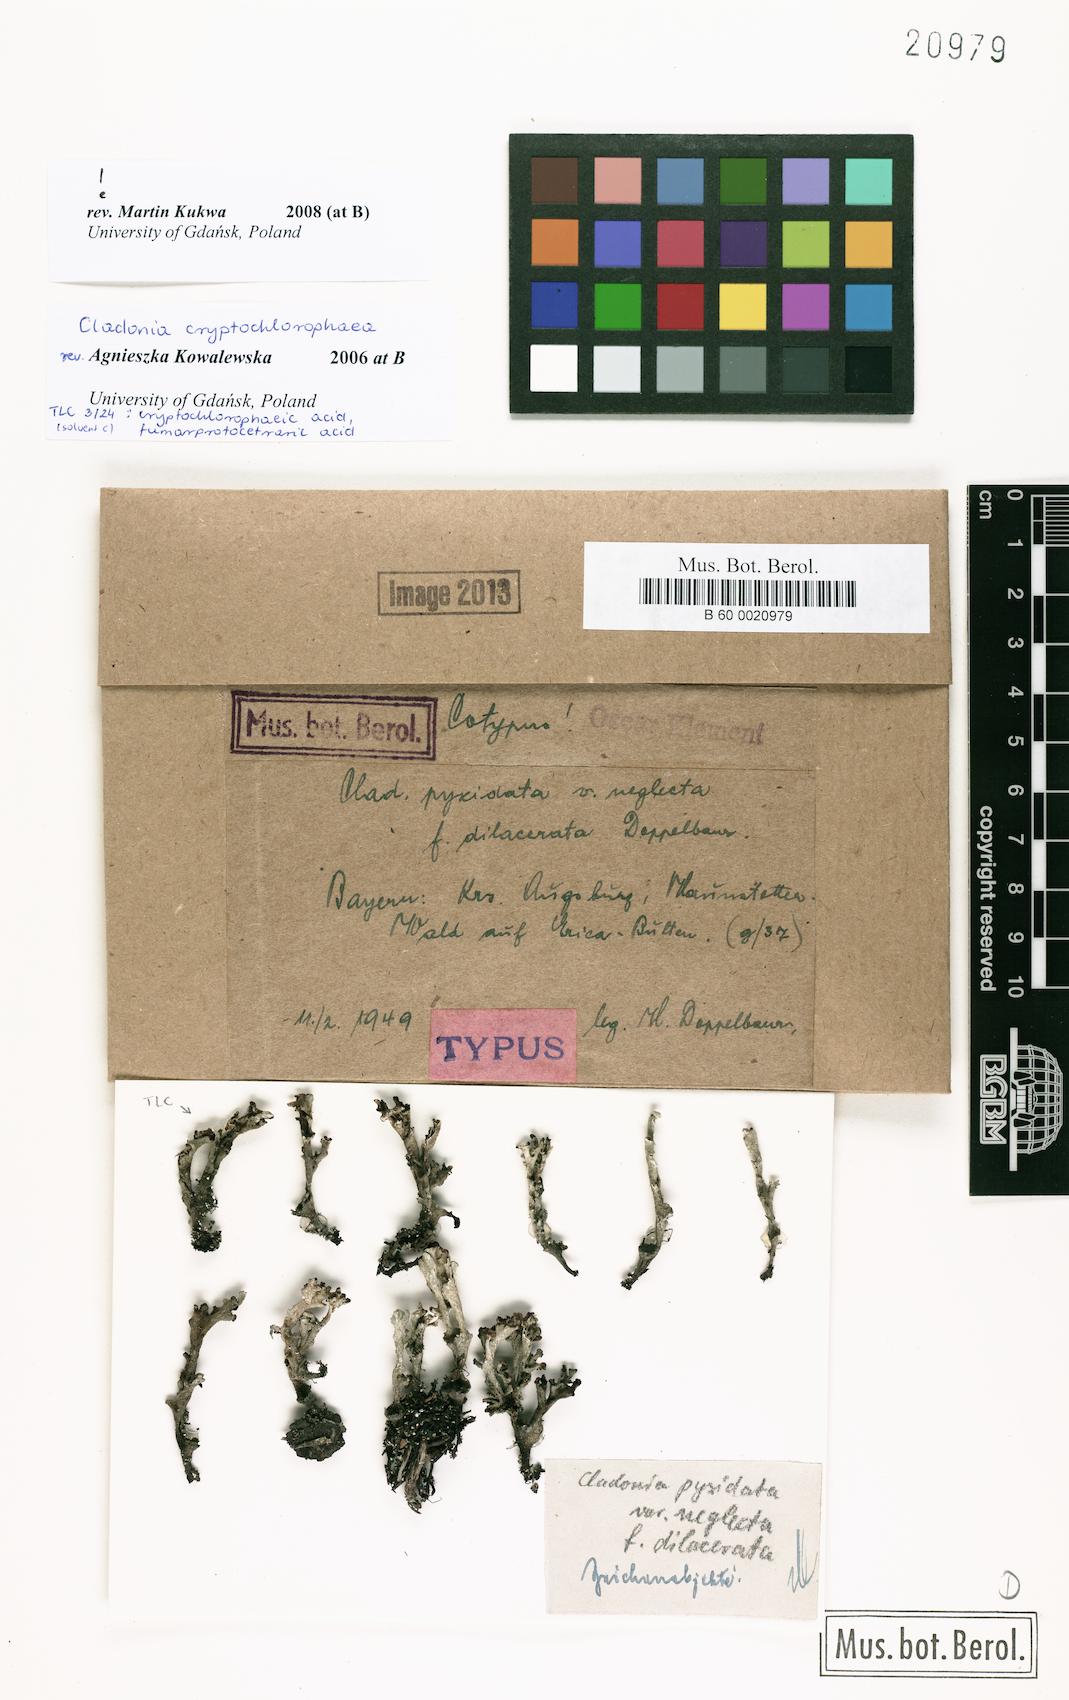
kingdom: Fungi
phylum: Ascomycota
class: Lecanoromycetes
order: Lecanorales
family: Cladoniaceae
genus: Cladonia
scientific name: Cladonia pyxidata
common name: Pebbled pixie cup
